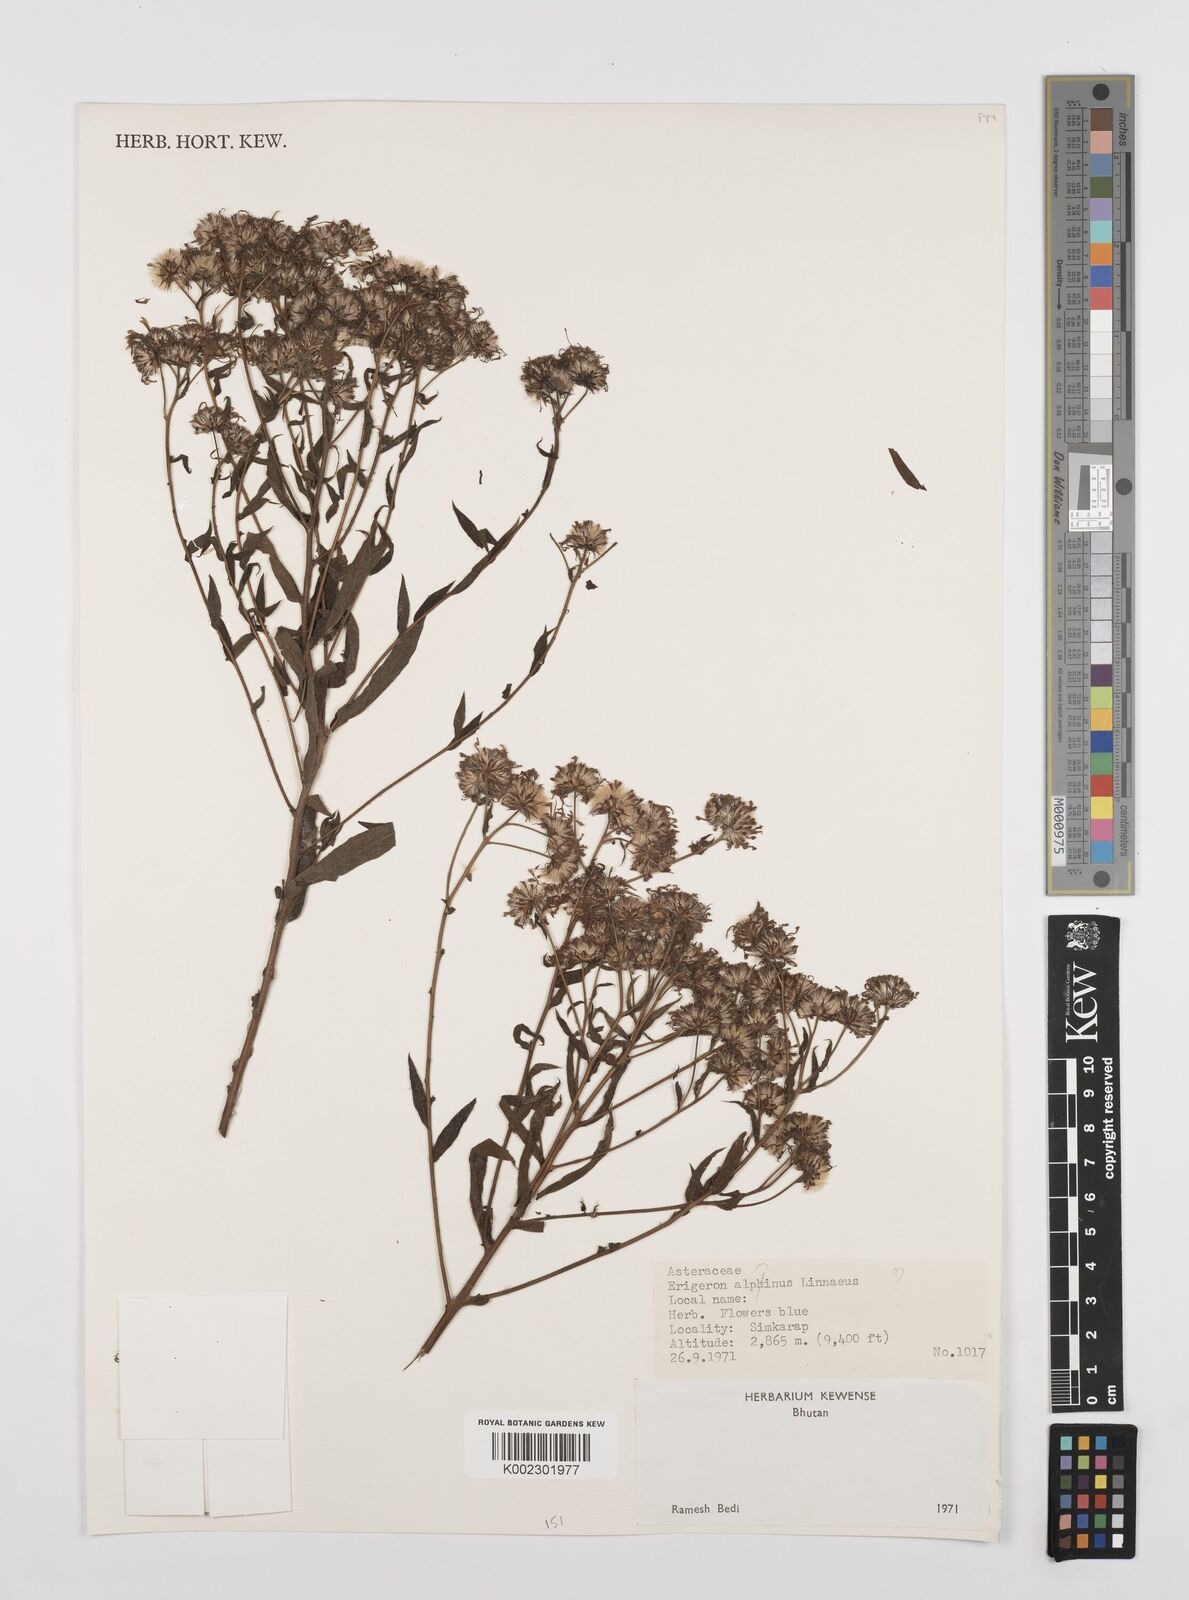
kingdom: Plantae
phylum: Tracheophyta
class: Magnoliopsida
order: Asterales
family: Asteraceae
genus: Erigeron
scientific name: Erigeron alpinus
